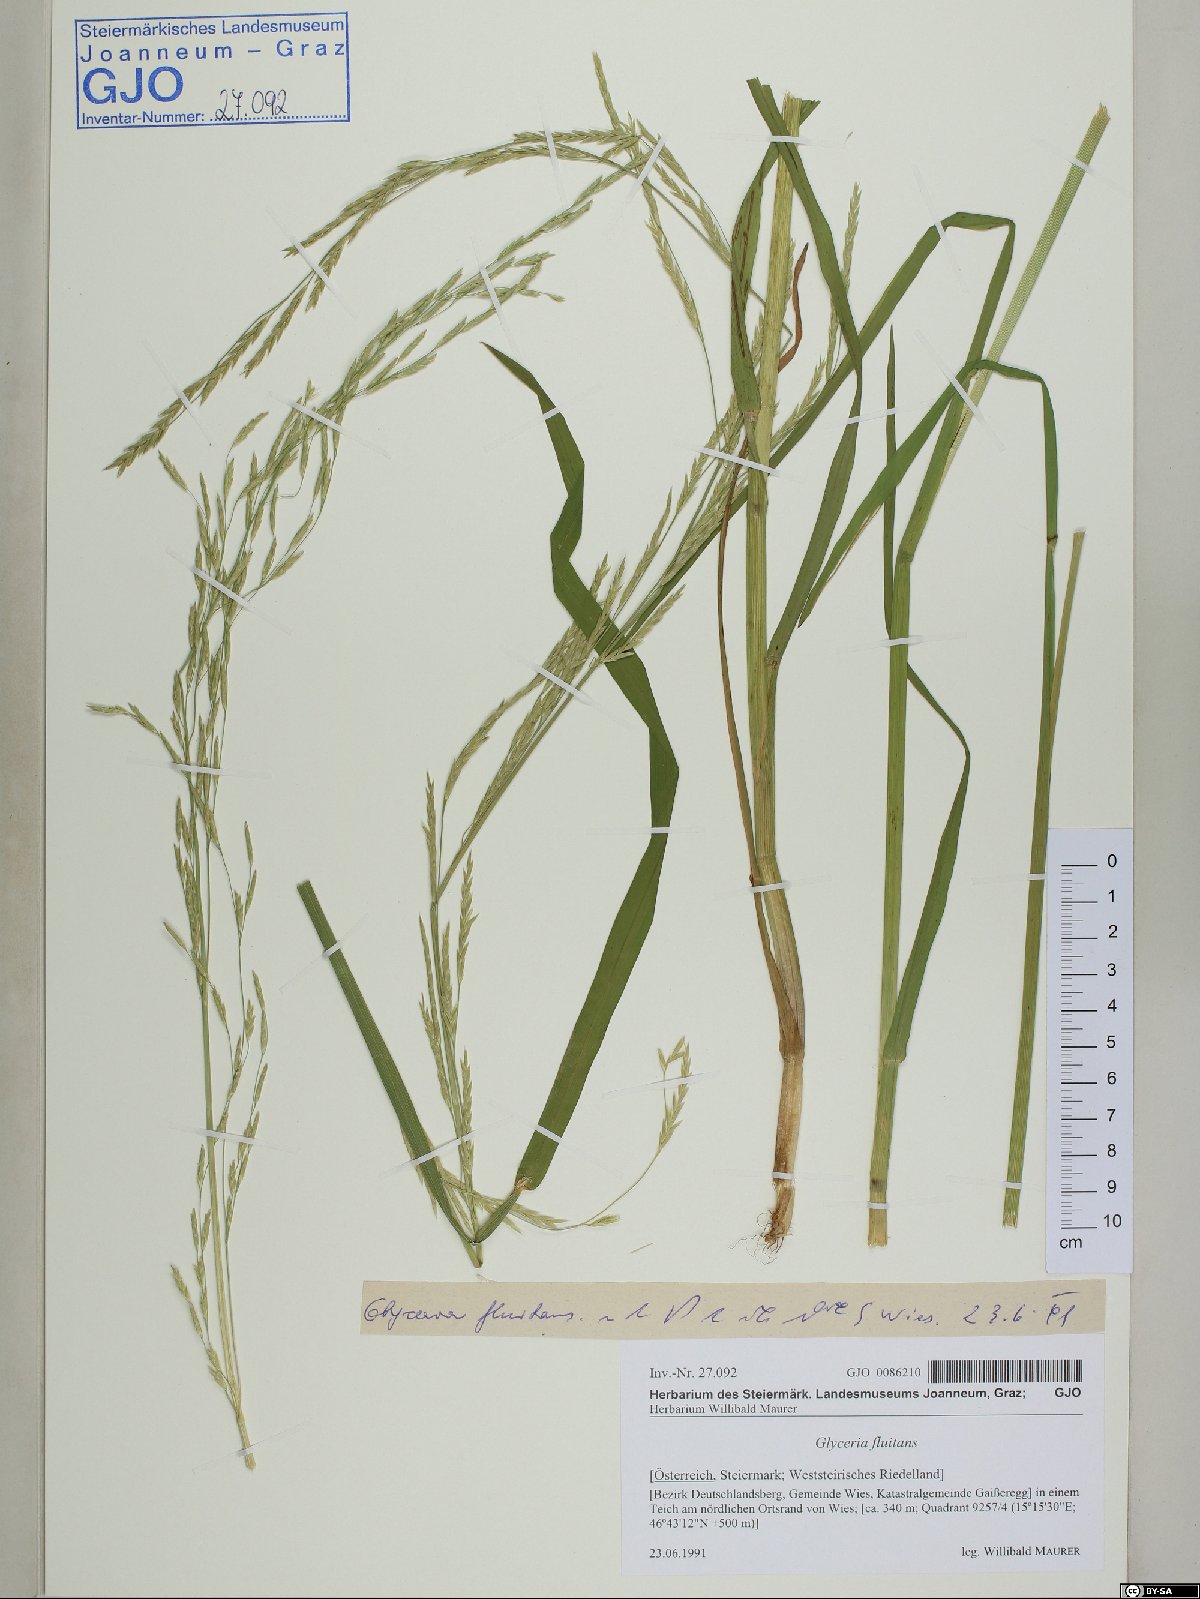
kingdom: Plantae
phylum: Tracheophyta
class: Liliopsida
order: Poales
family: Poaceae
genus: Glyceria
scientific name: Glyceria fluitans
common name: Floating sweet-grass
